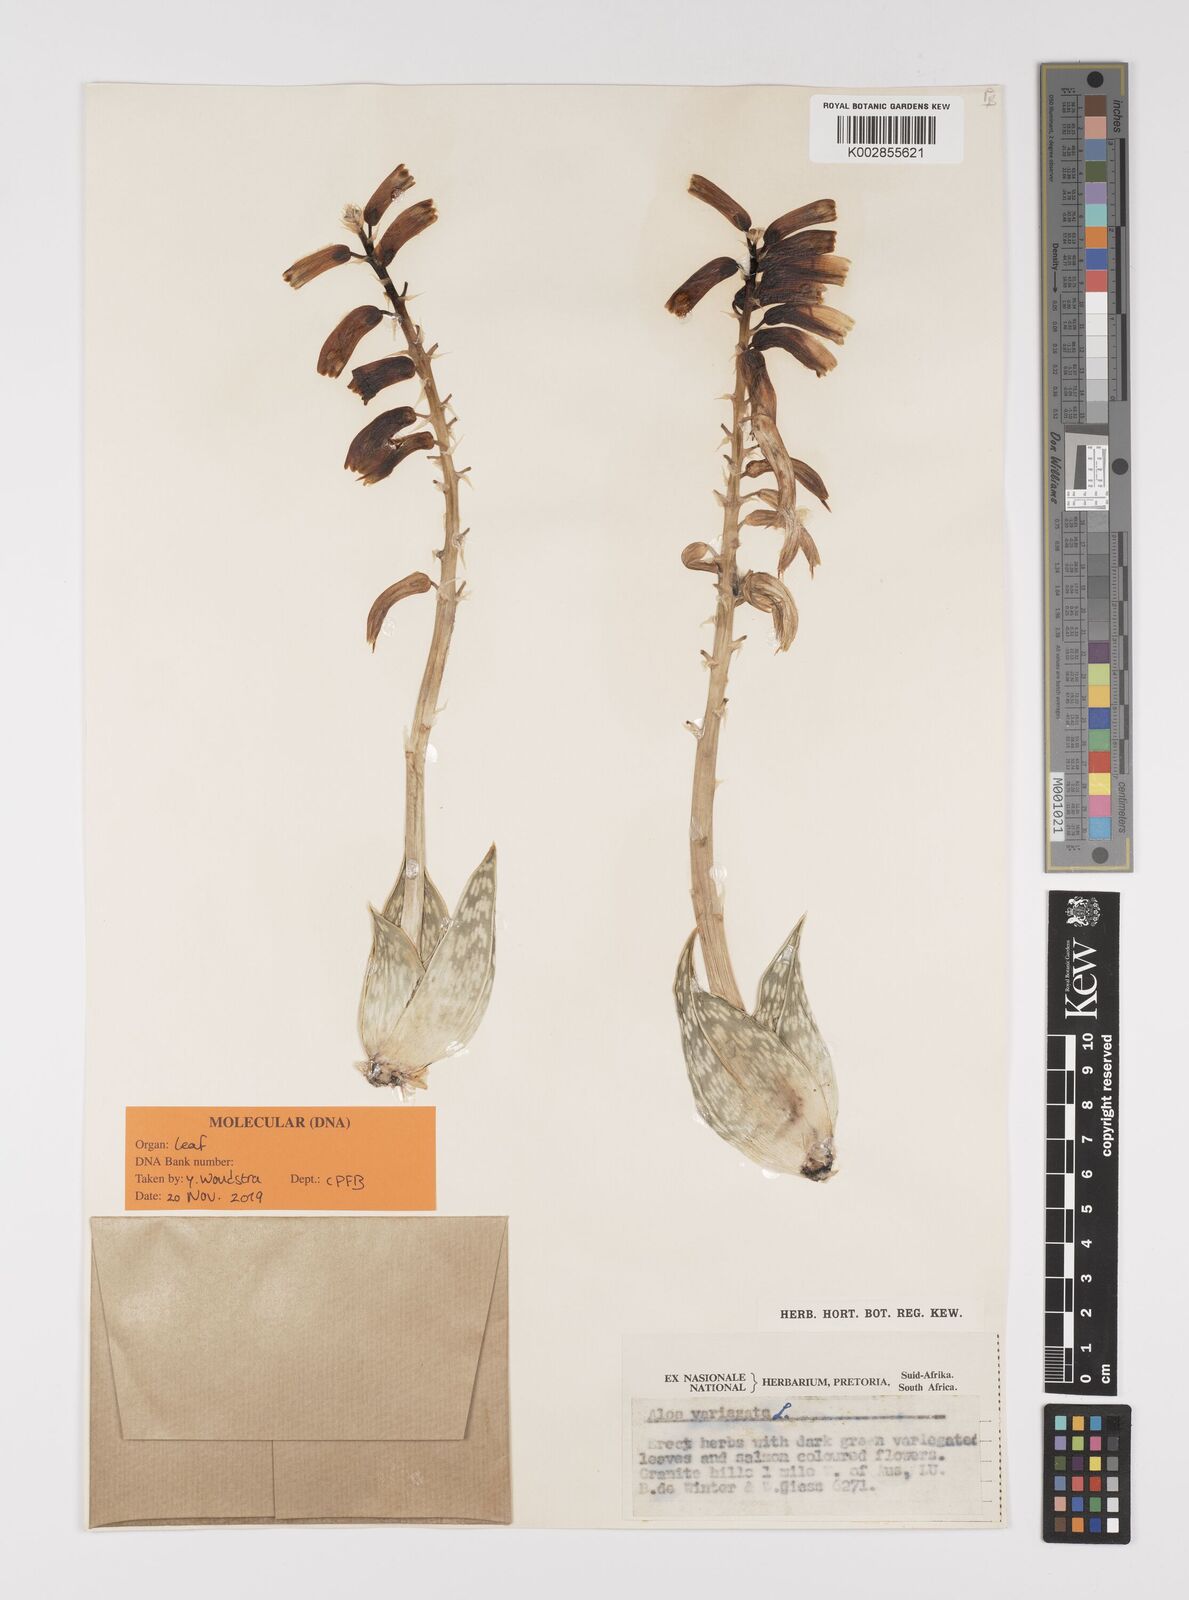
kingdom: Plantae
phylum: Tracheophyta
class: Liliopsida
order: Asparagales
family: Asphodelaceae
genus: Gonialoe
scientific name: Gonialoe variegata
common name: Aloe variegata
